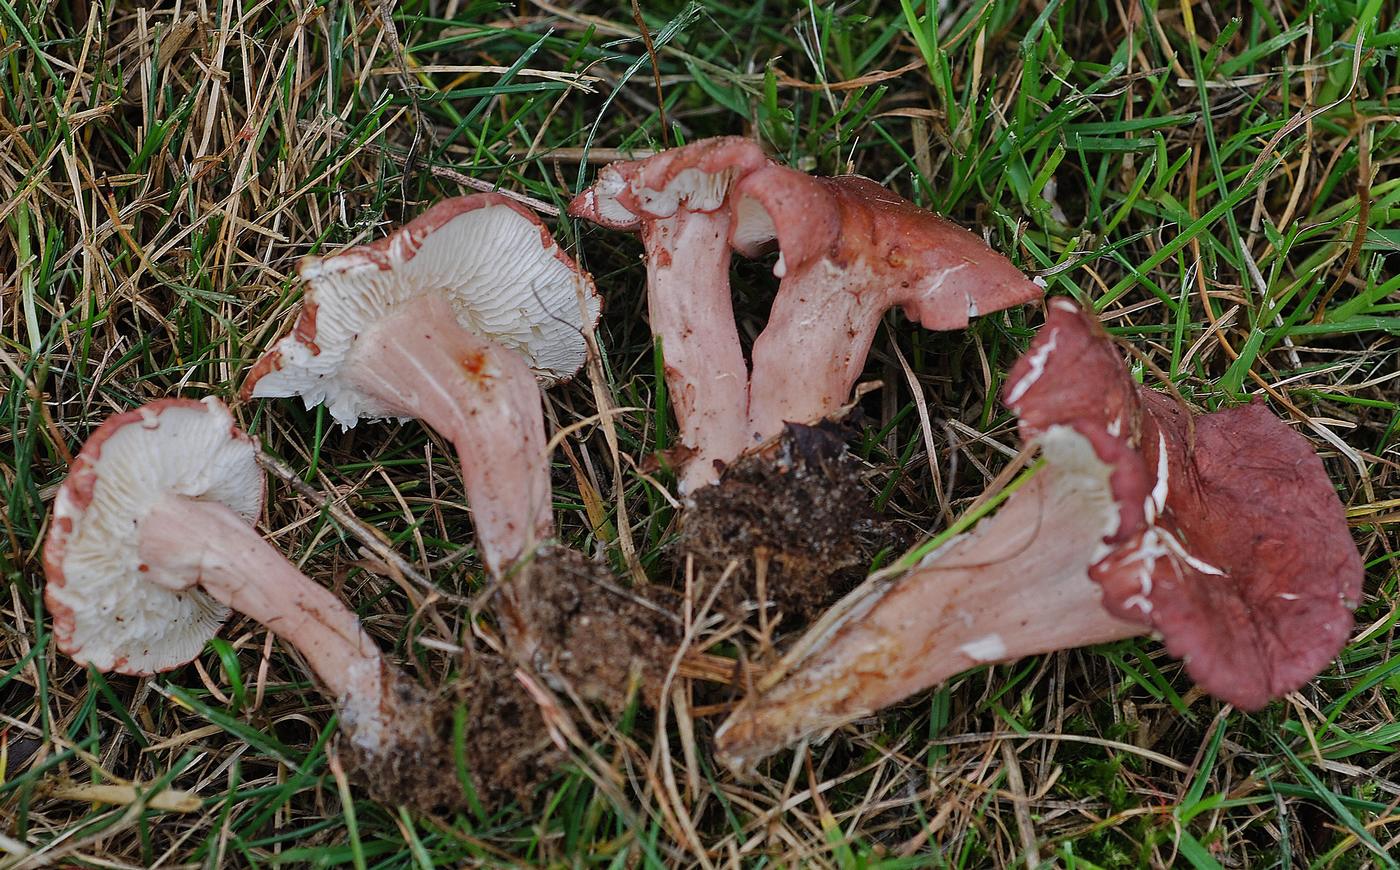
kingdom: Fungi
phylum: Basidiomycota
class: Agaricomycetes
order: Agaricales
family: Lyophyllaceae
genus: Calocybe
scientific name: Calocybe carnea
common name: rosa fagerhat
